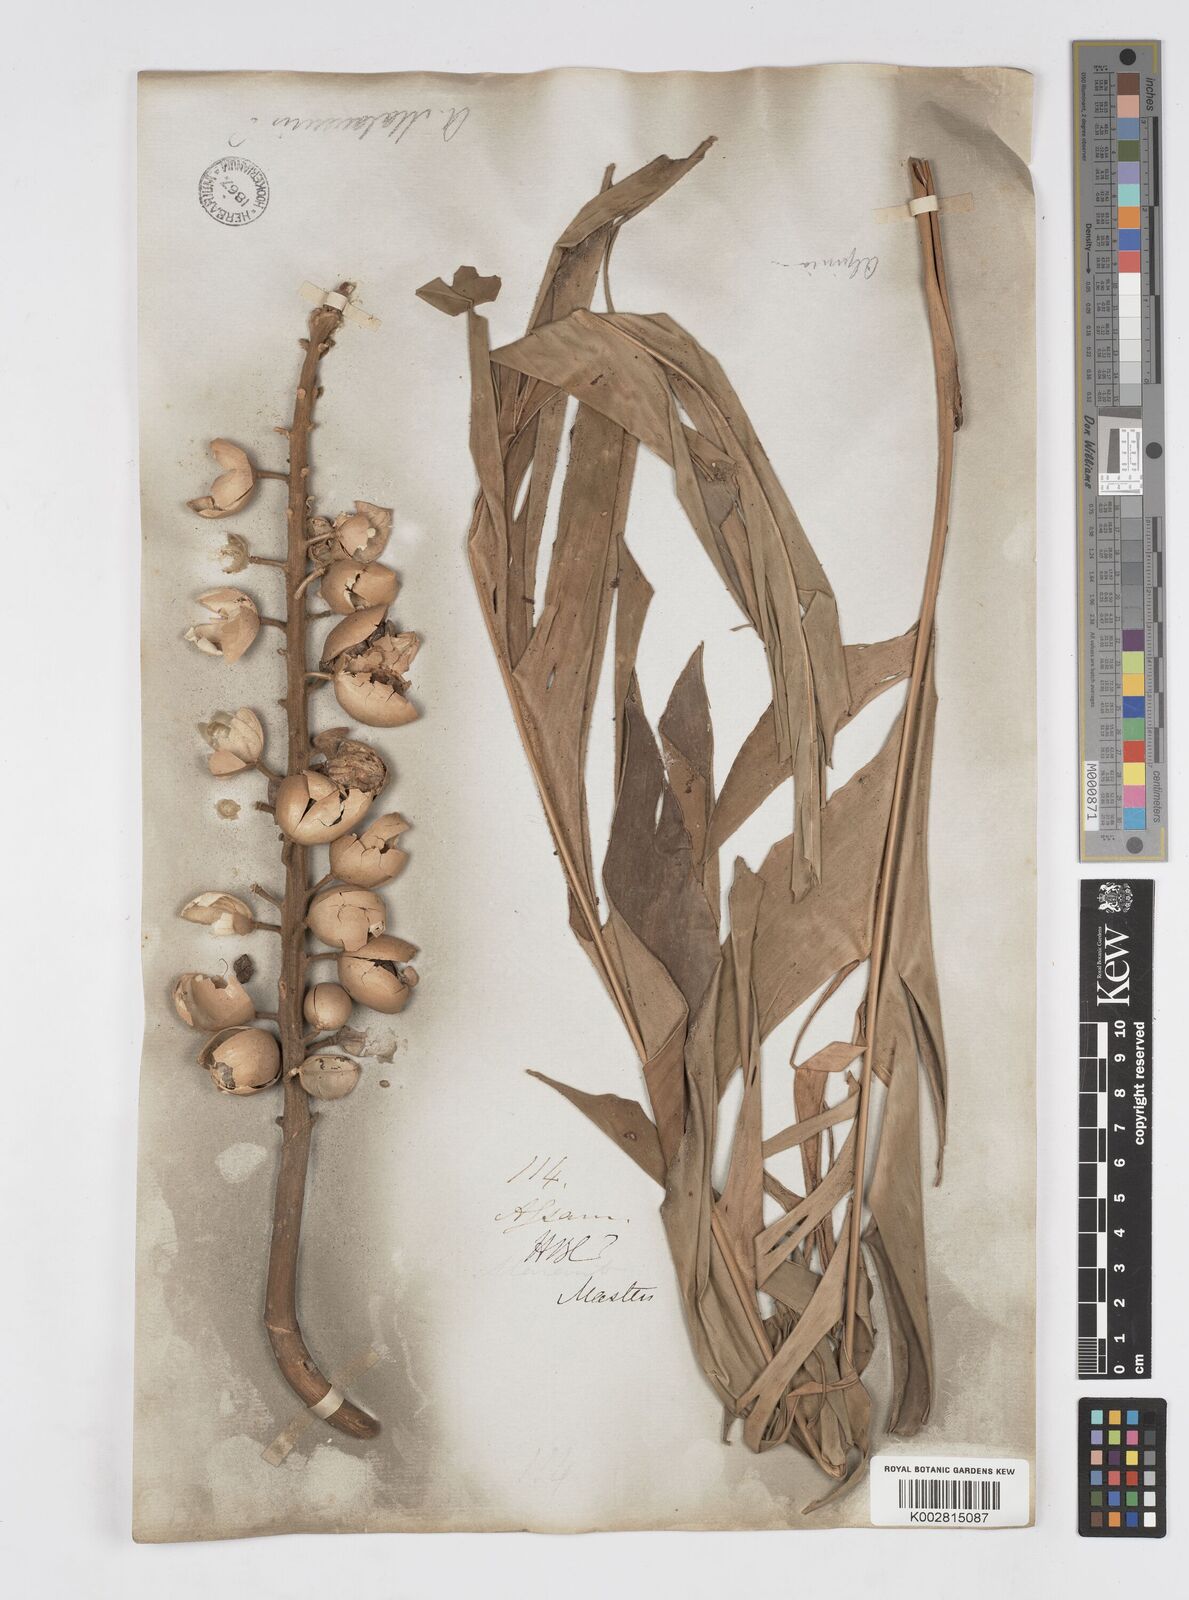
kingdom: Plantae
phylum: Tracheophyta
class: Liliopsida
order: Zingiberales
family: Zingiberaceae
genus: Alpinia
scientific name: Alpinia malaccensis
